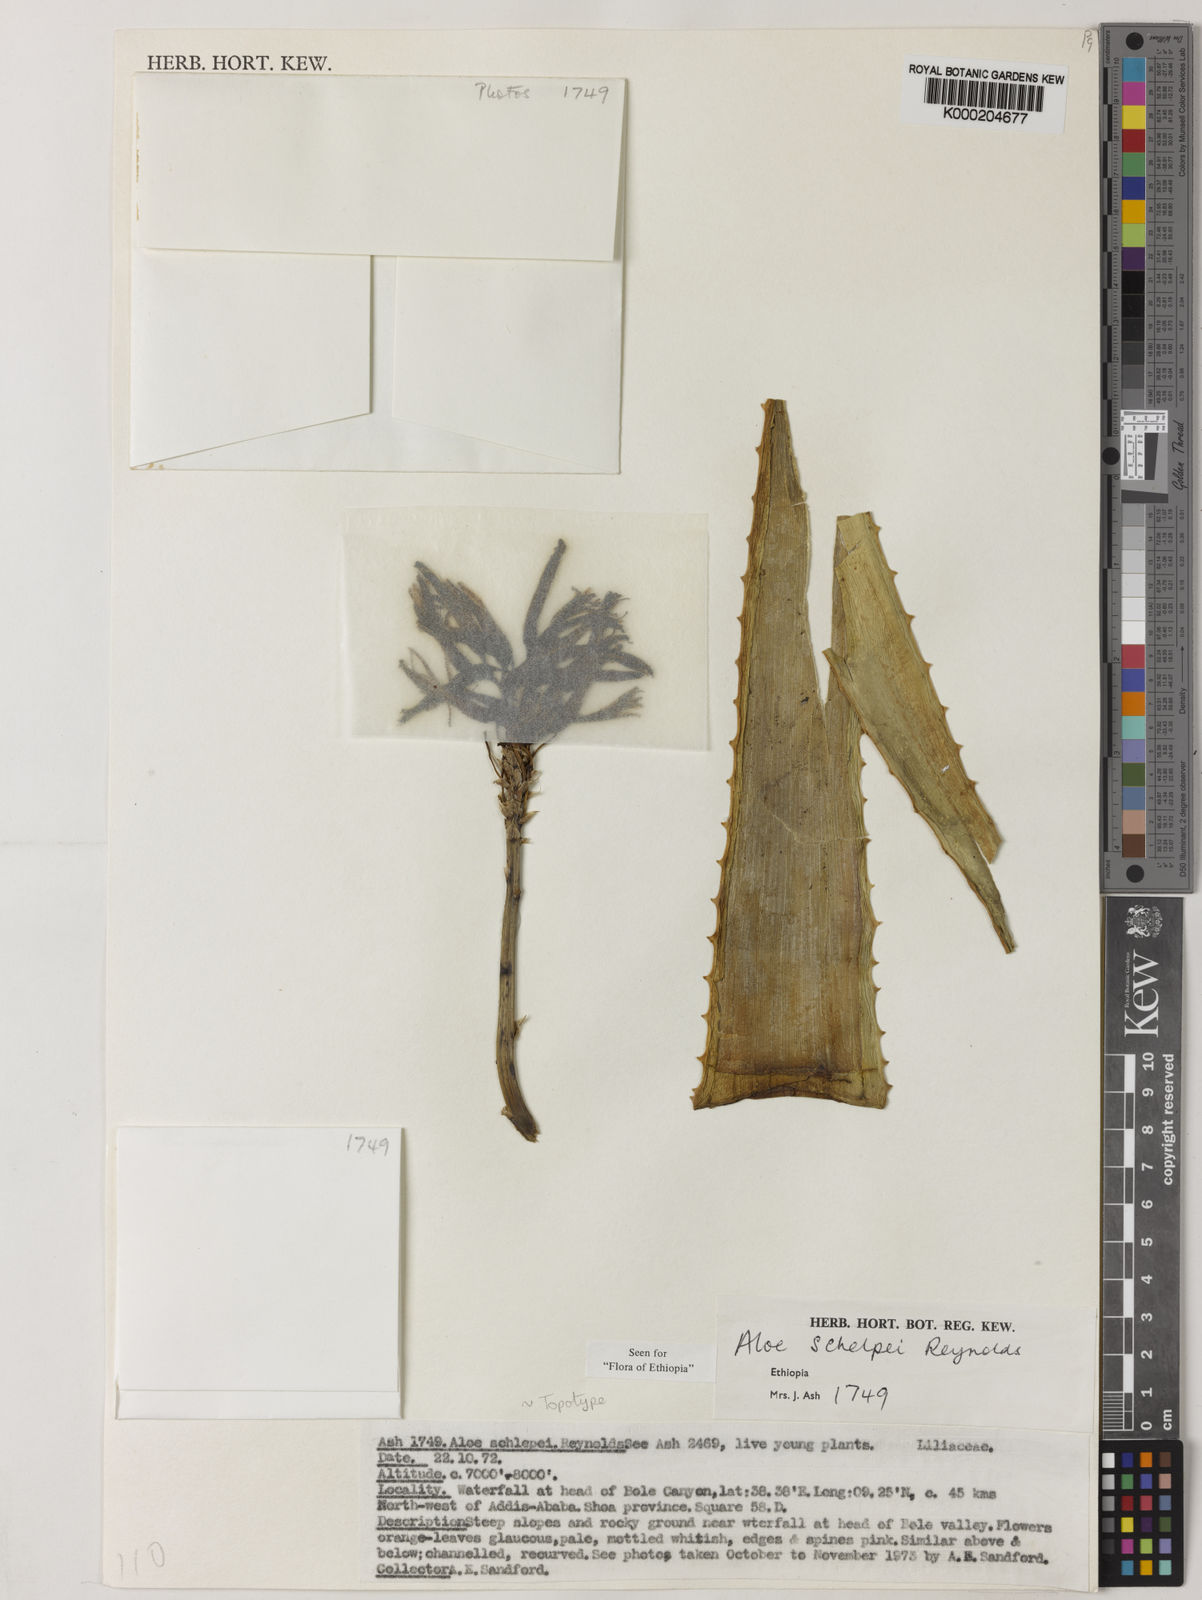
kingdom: Plantae
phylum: Tracheophyta
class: Liliopsida
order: Asparagales
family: Asphodelaceae
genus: Aloe
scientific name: Aloe schelpei
